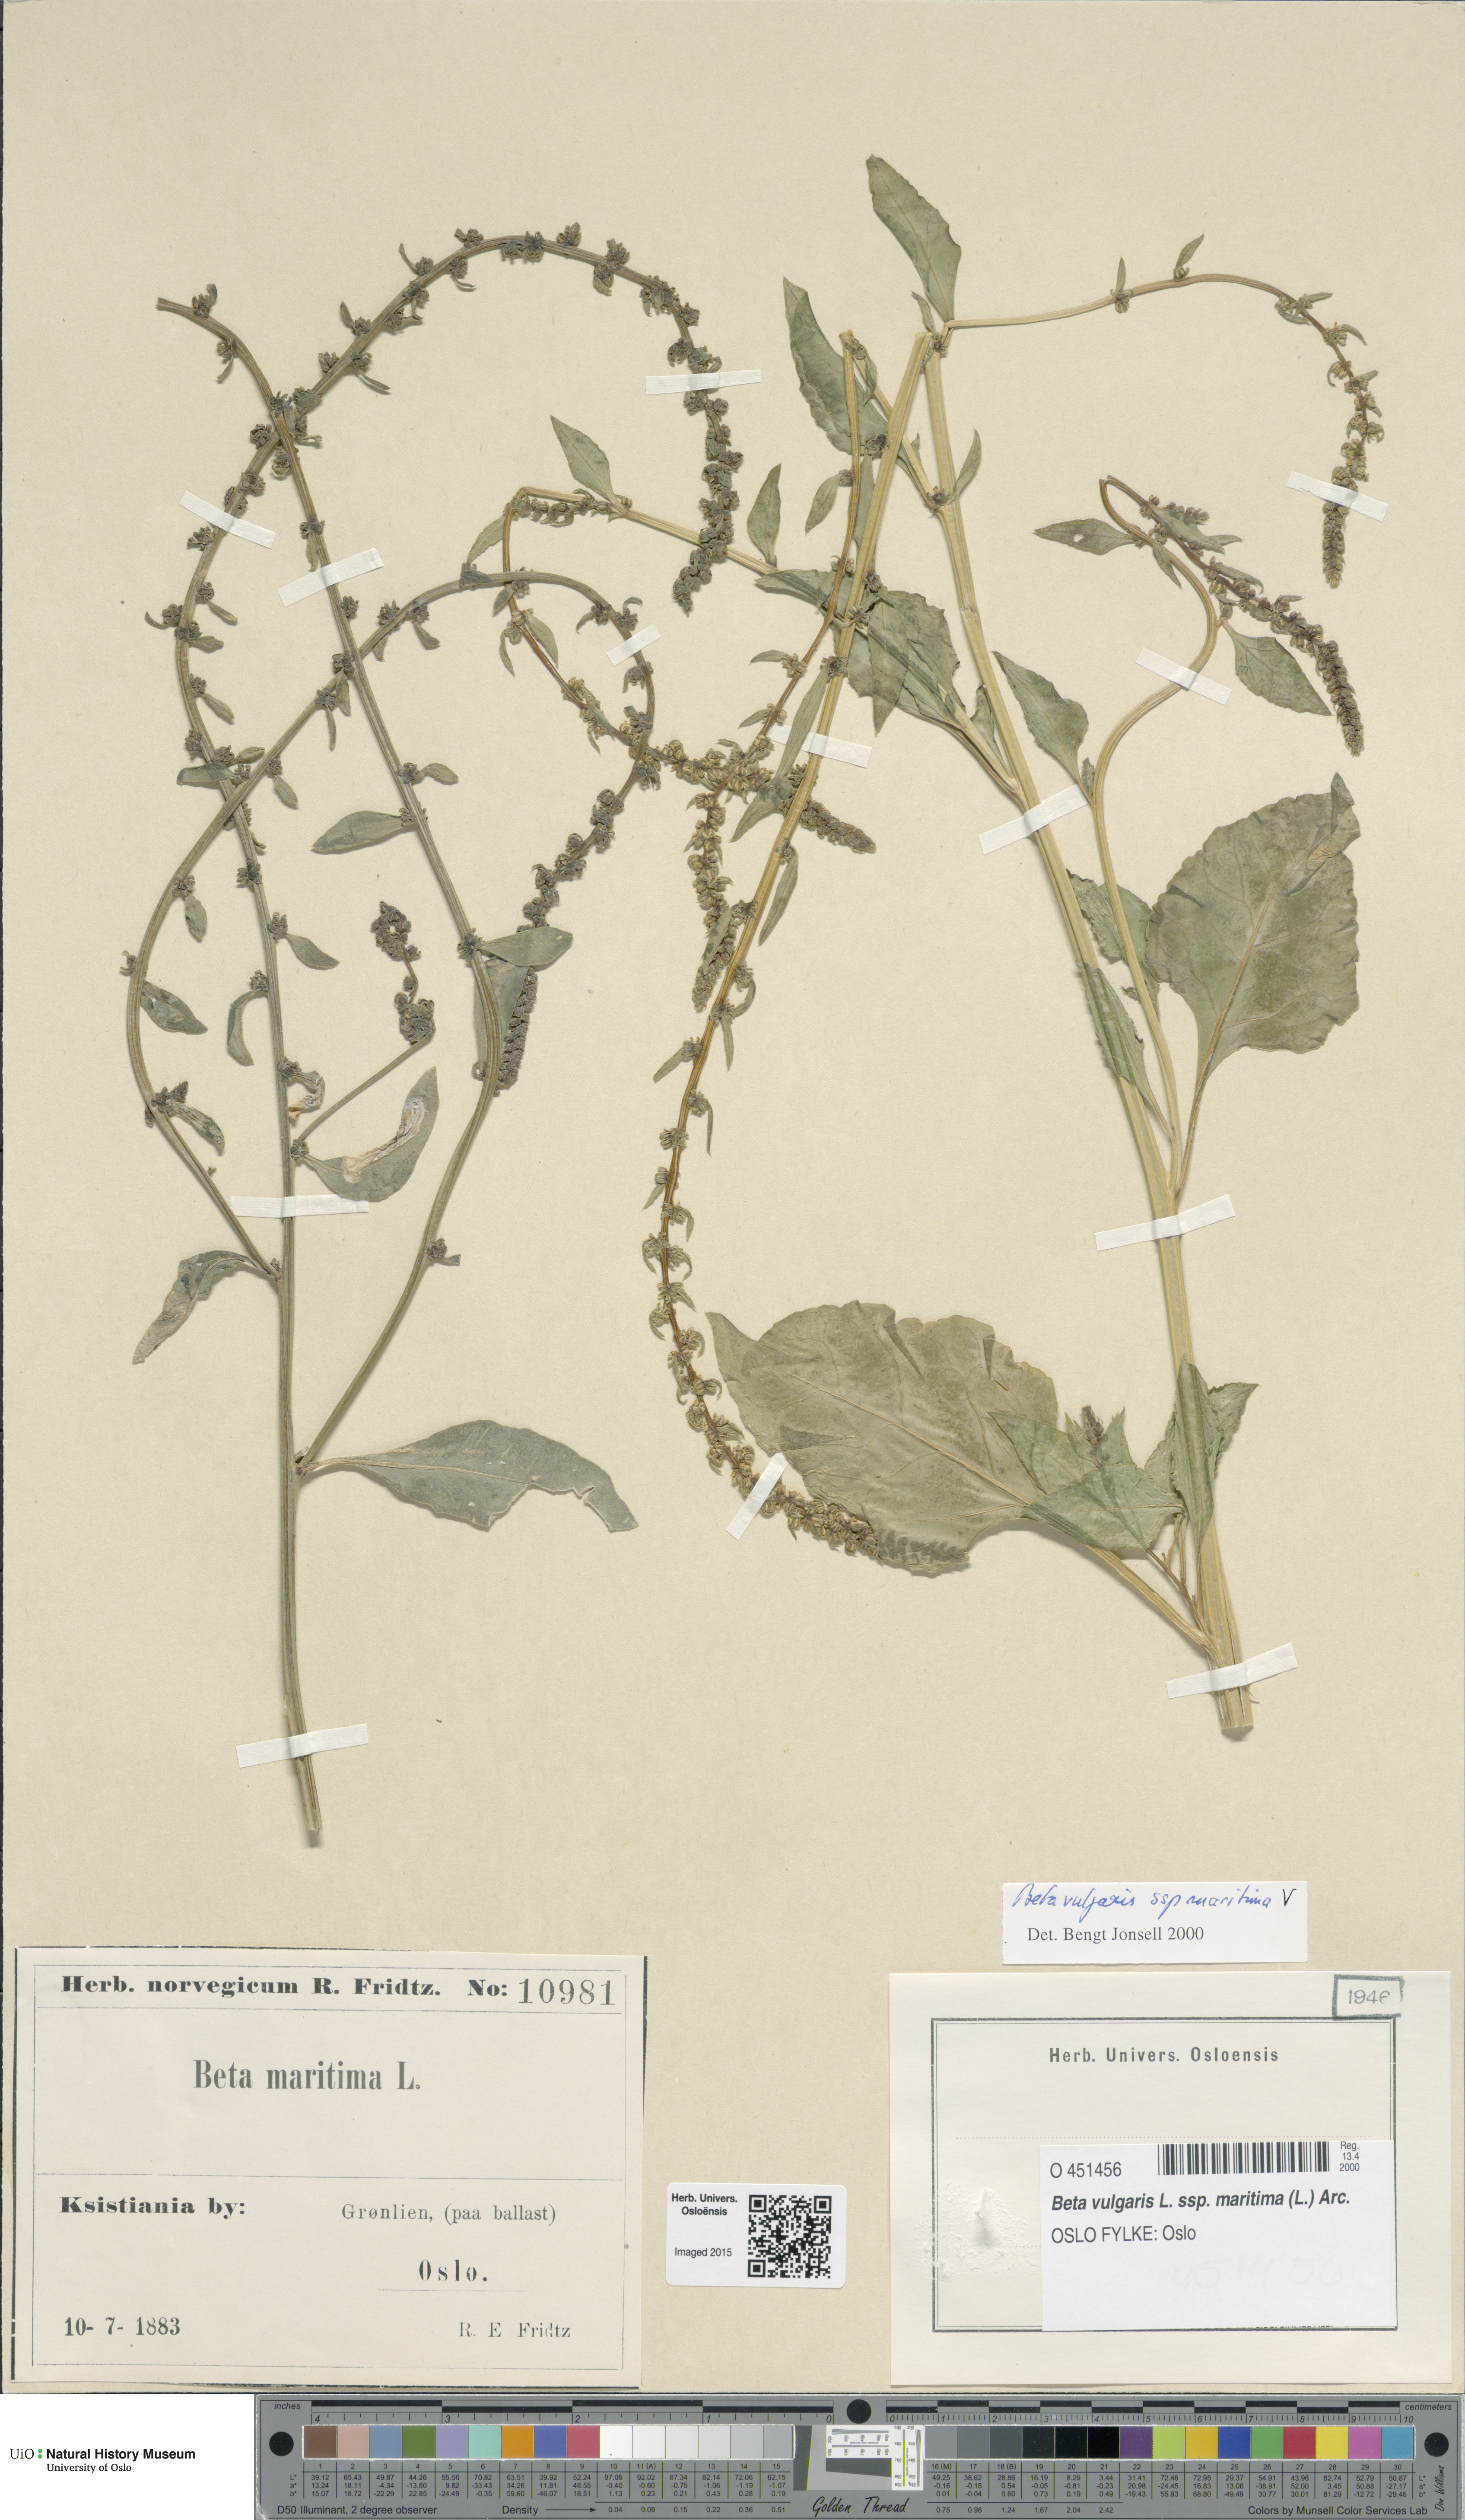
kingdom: Plantae
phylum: Tracheophyta
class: Magnoliopsida
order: Caryophyllales
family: Amaranthaceae
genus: Beta
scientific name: Beta maritima
